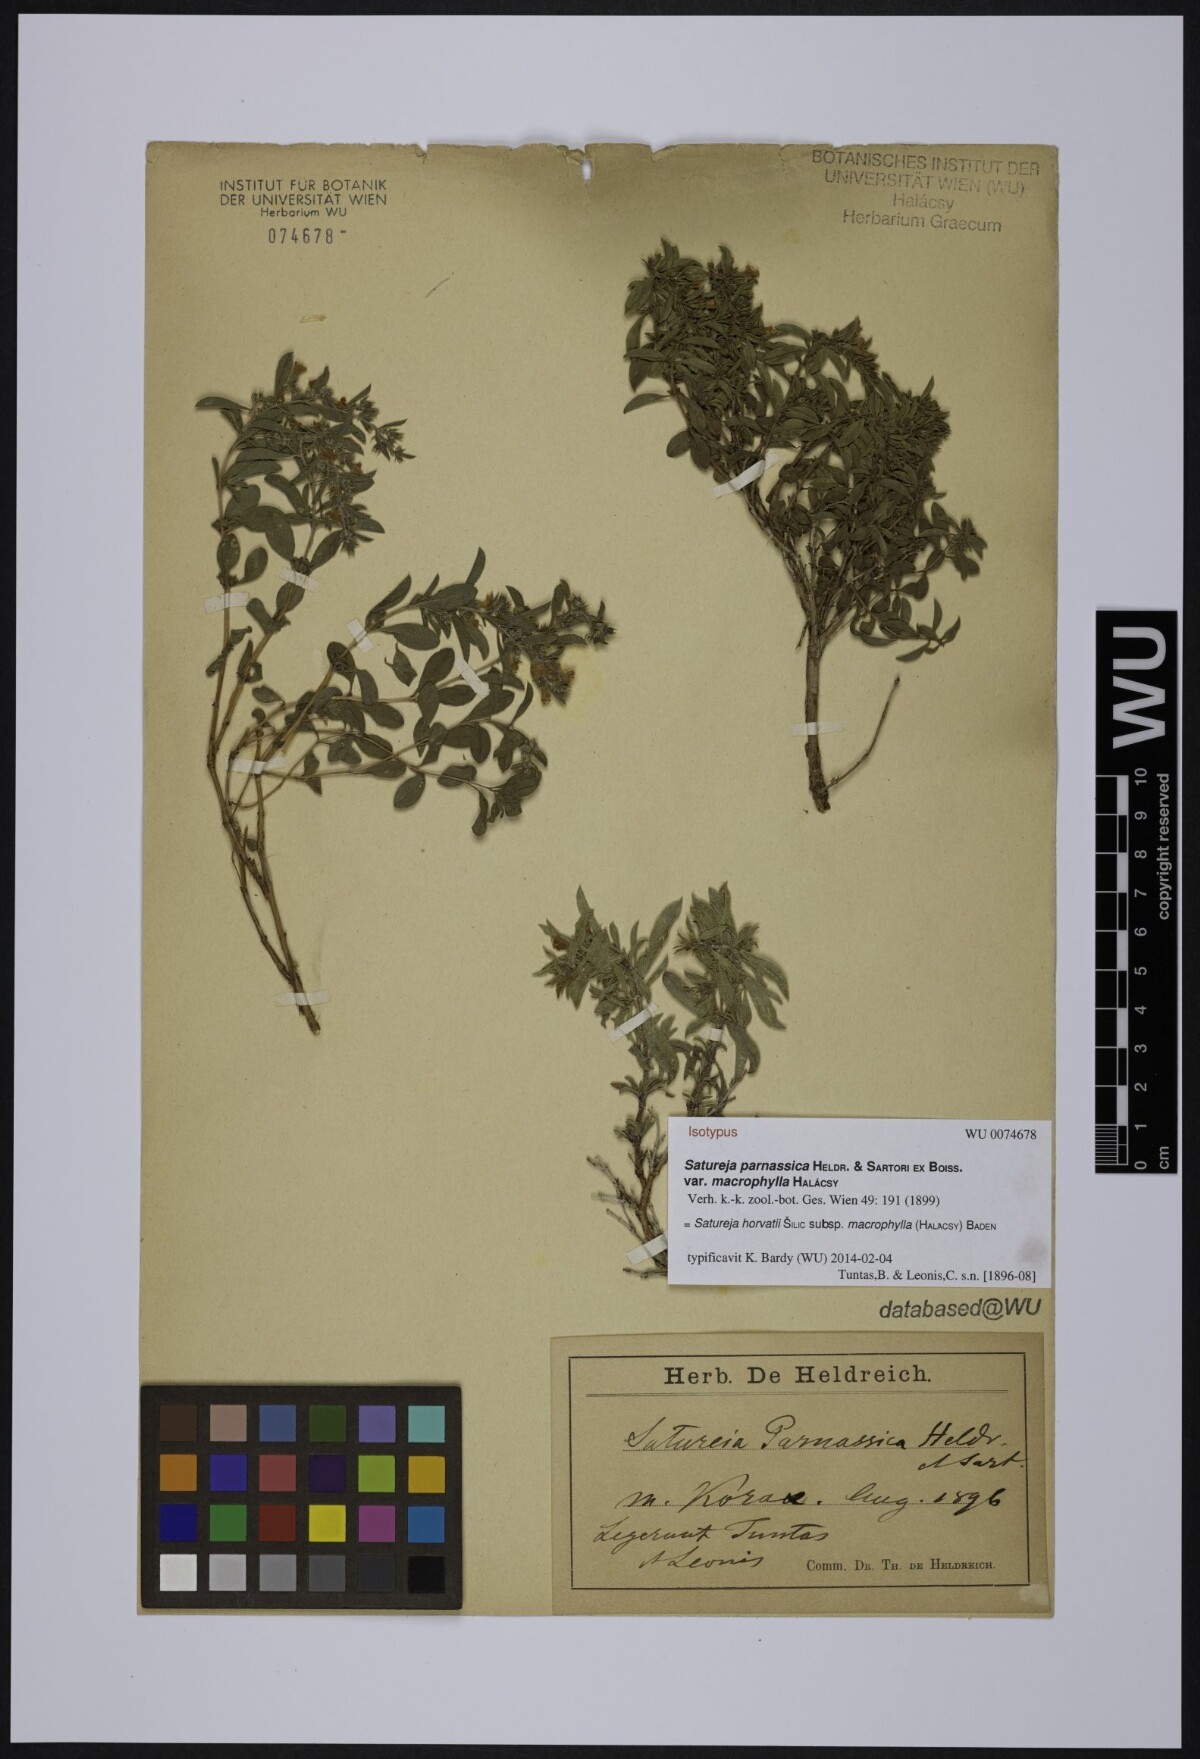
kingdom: Plantae
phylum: Tracheophyta
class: Magnoliopsida
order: Lamiales
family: Lamiaceae
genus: Satureja
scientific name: Satureja horvatii
